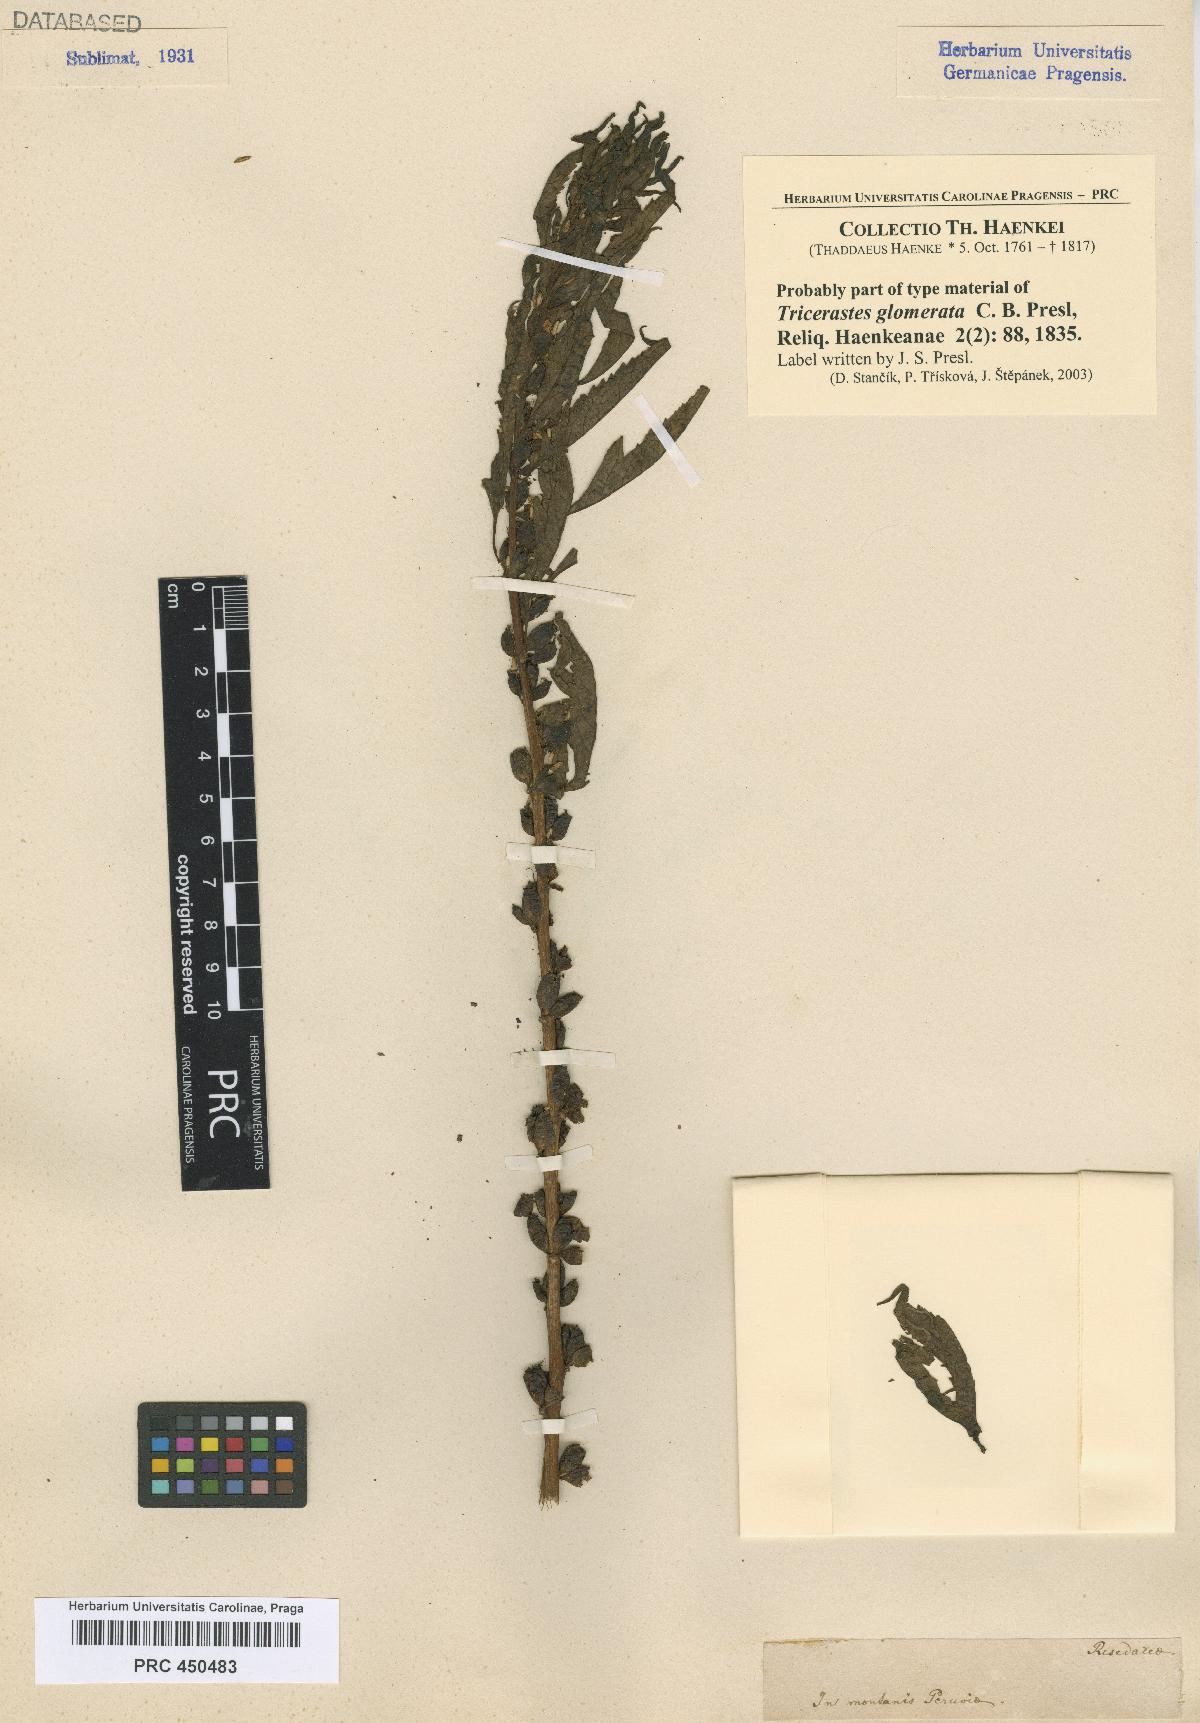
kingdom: Plantae
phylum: Tracheophyta
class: Magnoliopsida
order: Cucurbitales
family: Datiscaceae
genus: Datisca
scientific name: Datisca glomerata
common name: Durango-root
